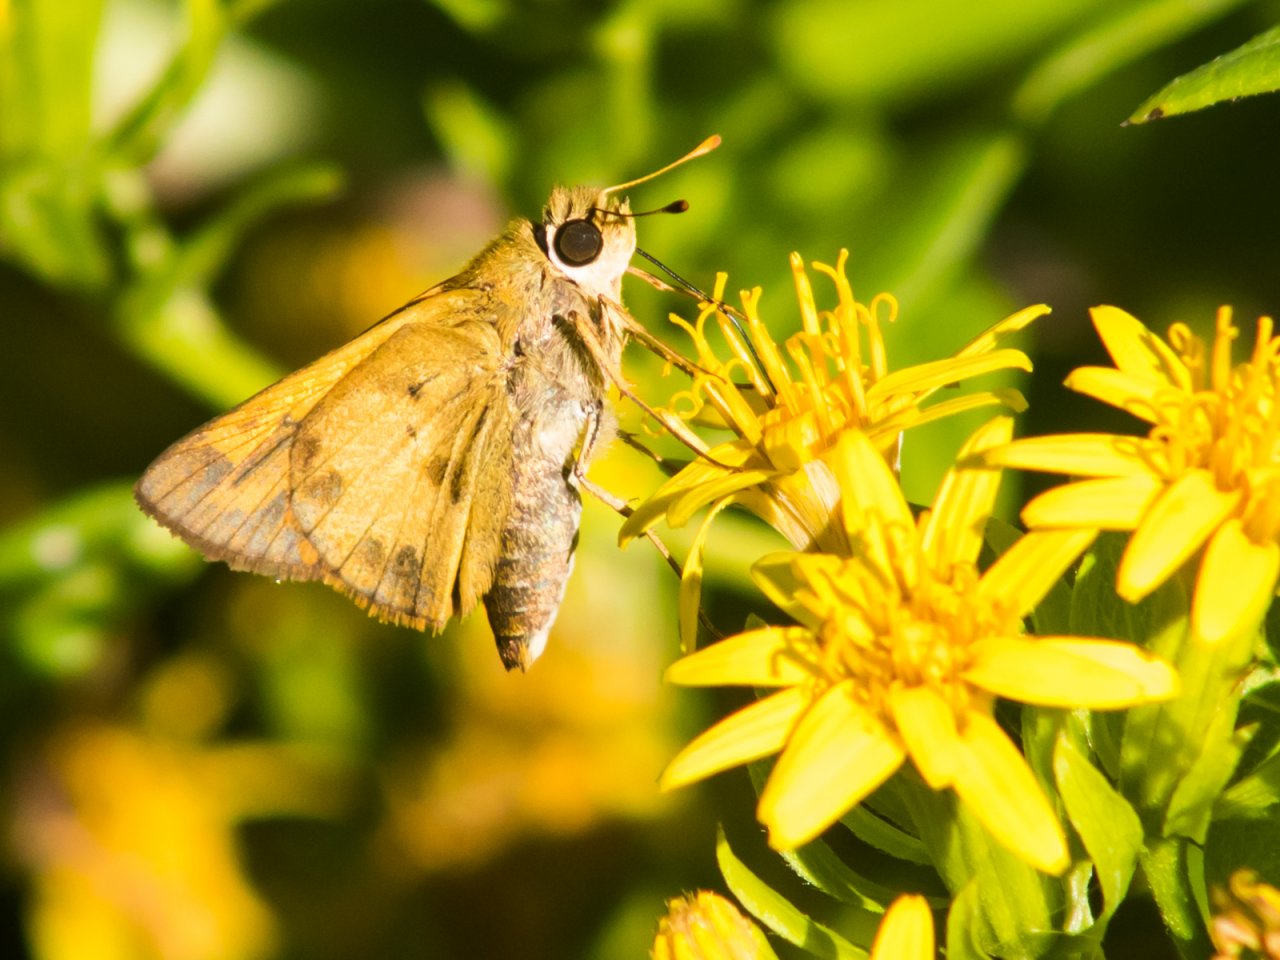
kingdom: Animalia
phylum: Arthropoda
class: Insecta
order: Lepidoptera
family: Hesperiidae
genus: Polites
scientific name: Polites vibex
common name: Whirlabout
